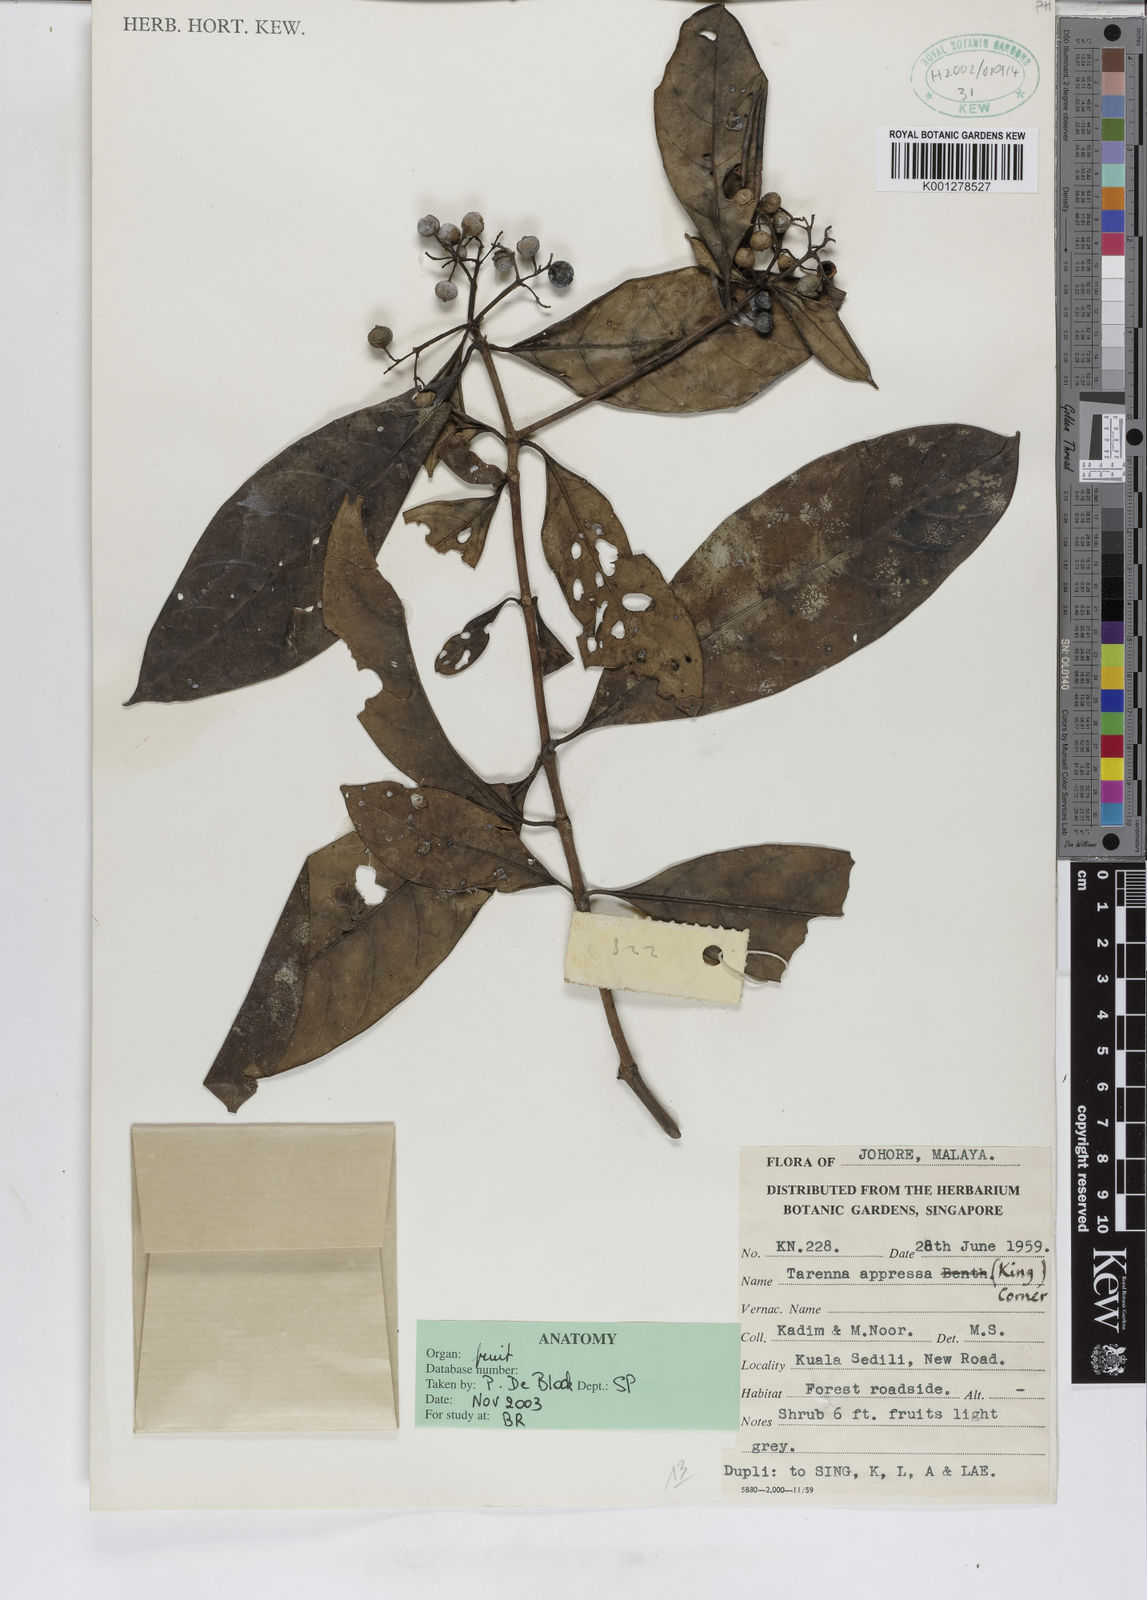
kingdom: Plantae
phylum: Tracheophyta
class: Magnoliopsida
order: Gentianales
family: Rubiaceae
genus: Tarenna
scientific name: Tarenna adpressa
